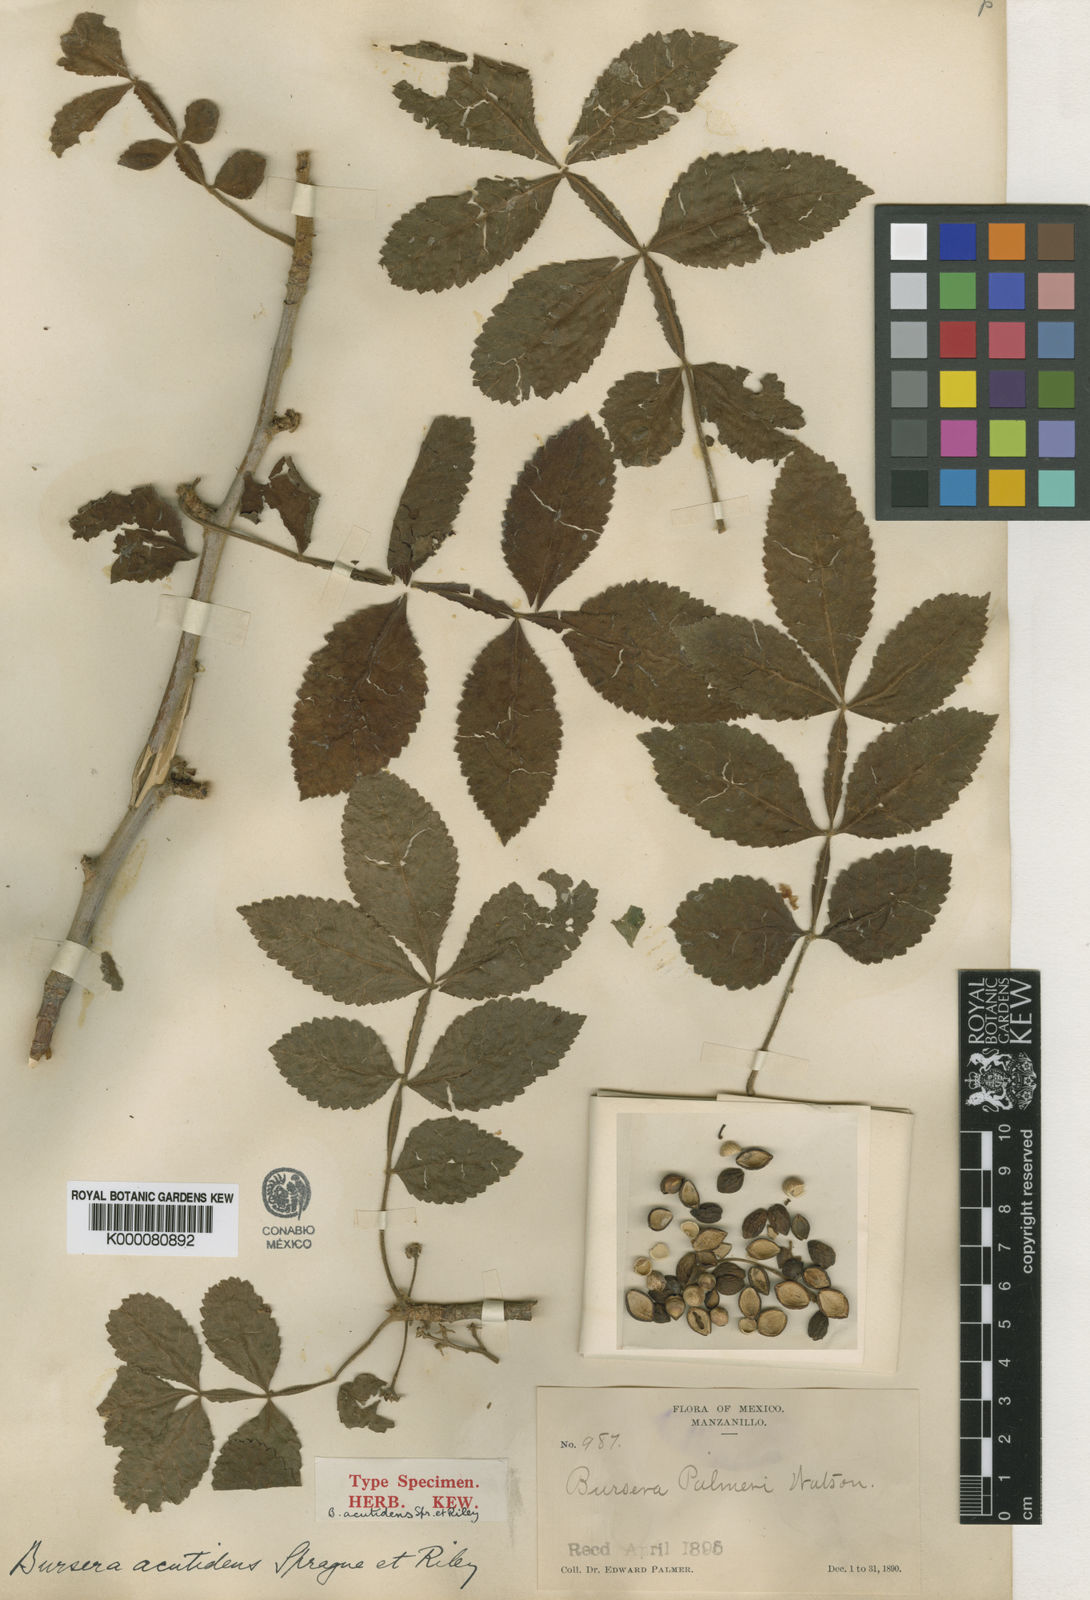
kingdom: Plantae
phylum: Tracheophyta
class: Magnoliopsida
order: Sapindales
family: Burseraceae
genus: Bursera
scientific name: Bursera excelsa
